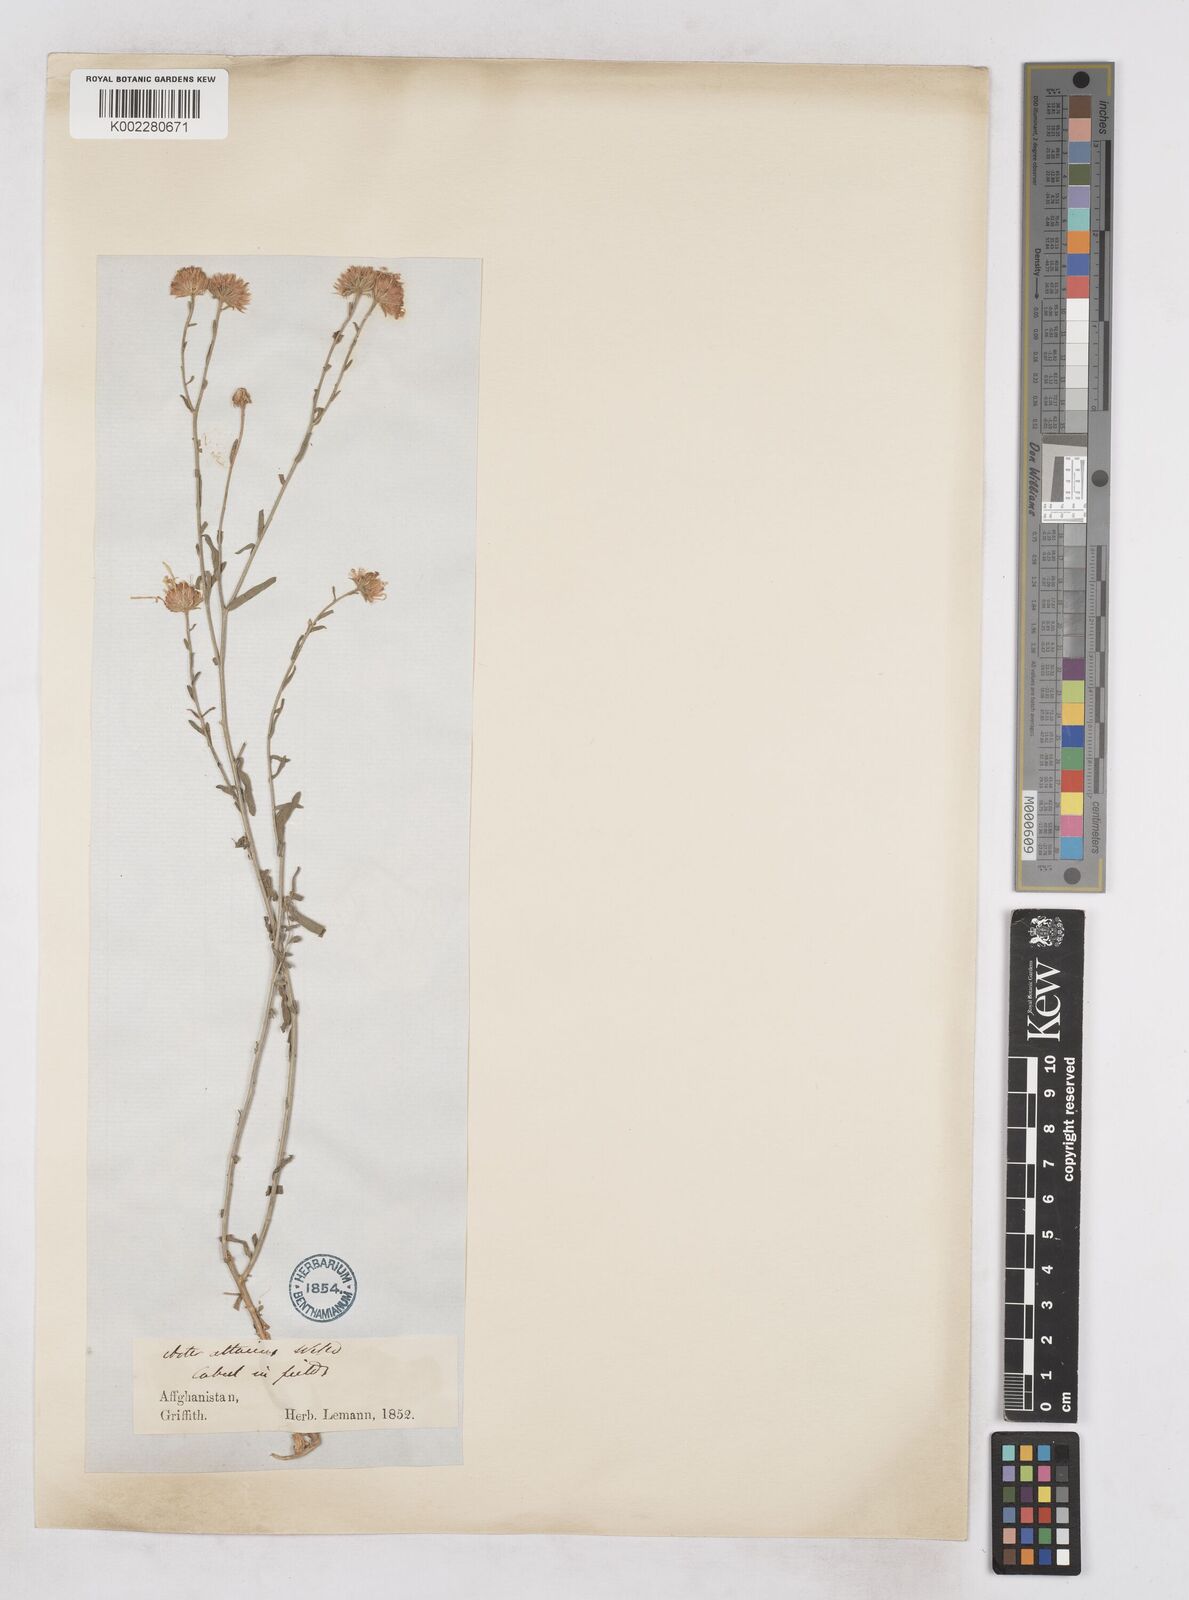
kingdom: Plantae
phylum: Tracheophyta
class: Magnoliopsida
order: Asterales
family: Asteraceae
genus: Heteropappus
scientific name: Heteropappus altaicus
